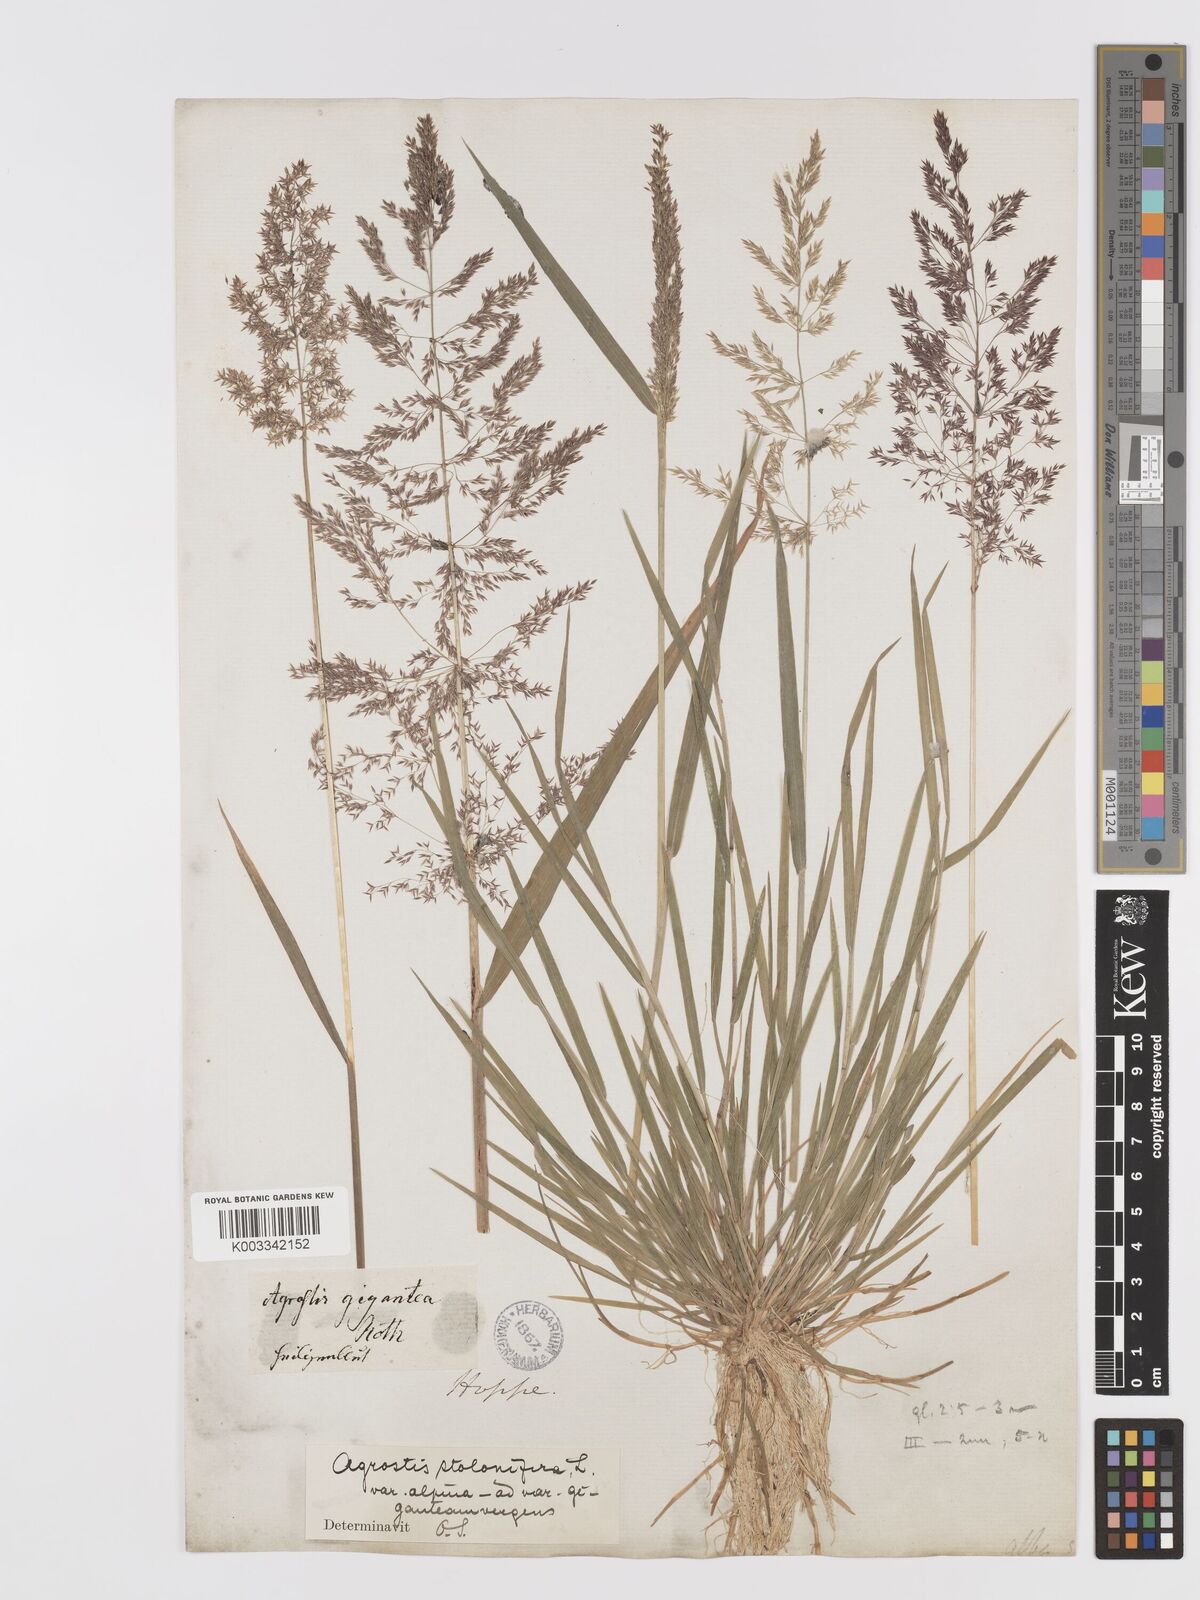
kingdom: Plantae
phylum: Tracheophyta
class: Liliopsida
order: Poales
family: Poaceae
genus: Agrostis
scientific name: Agrostis stolonifera
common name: Creeping bentgrass
